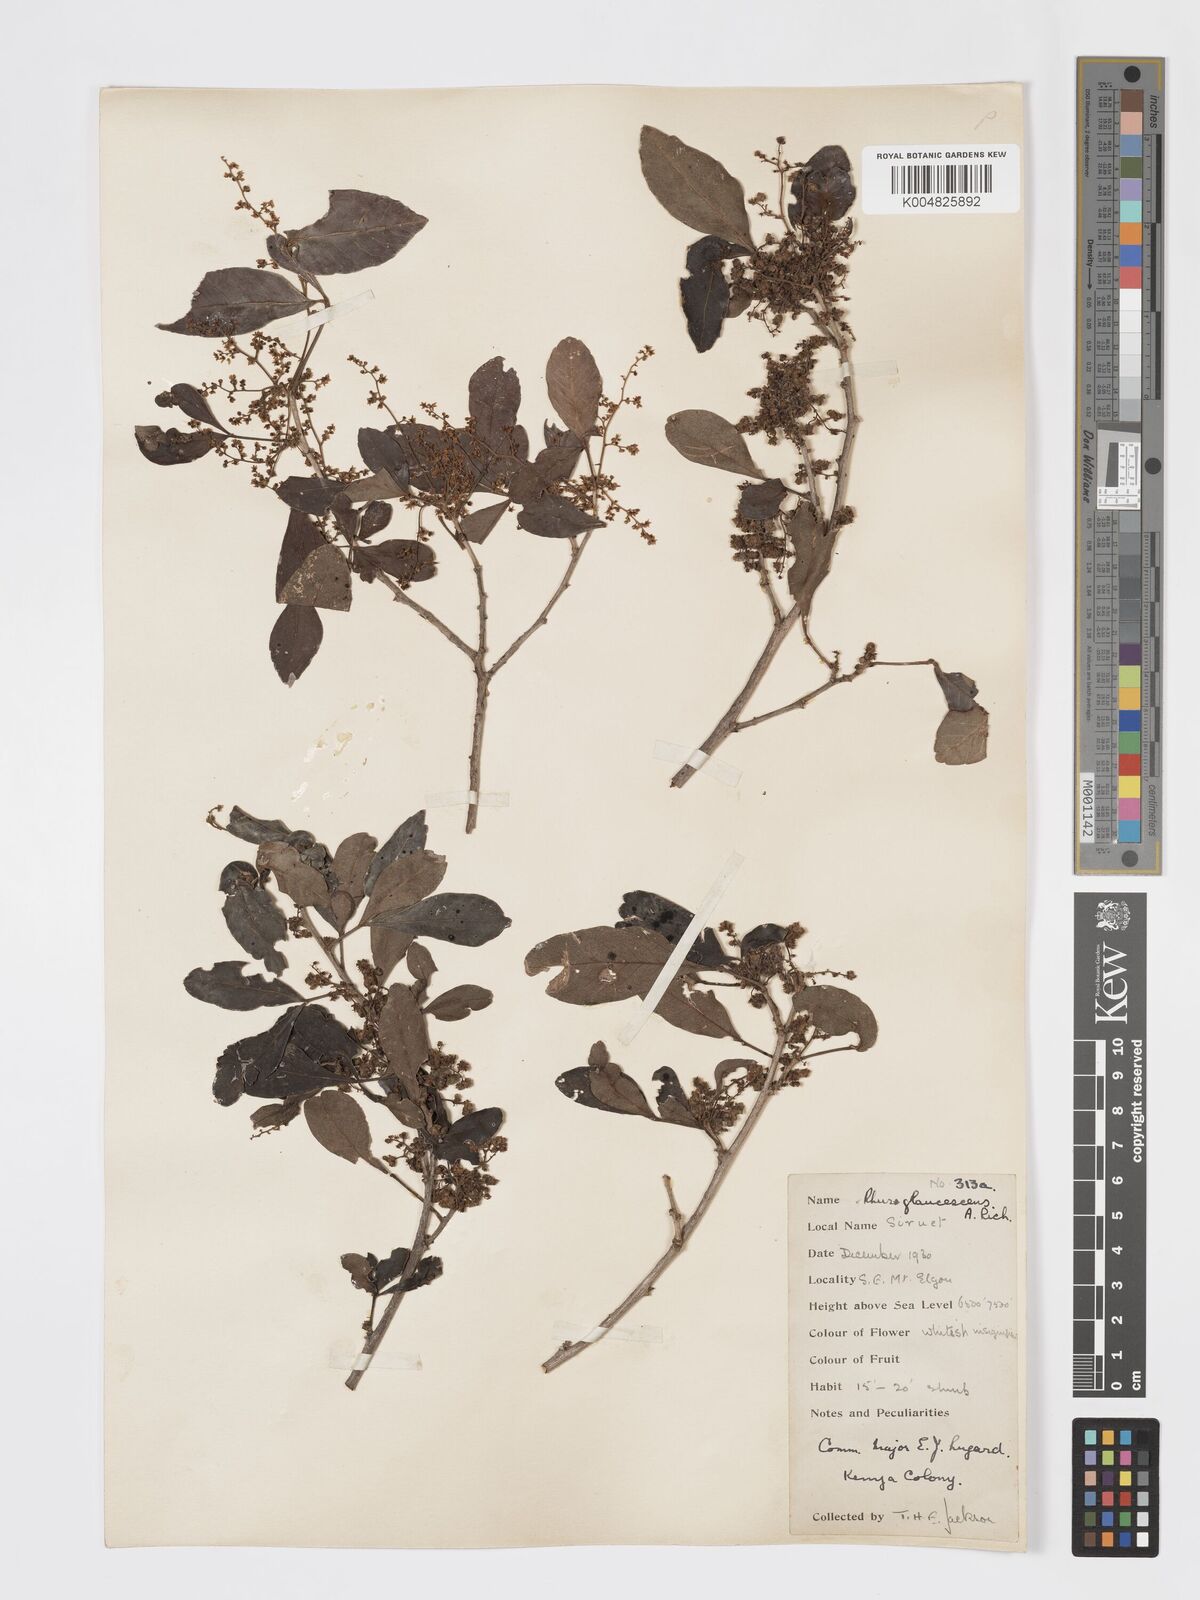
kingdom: Plantae
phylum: Tracheophyta
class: Magnoliopsida
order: Sapindales
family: Anacardiaceae
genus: Searsia
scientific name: Searsia natalensis
